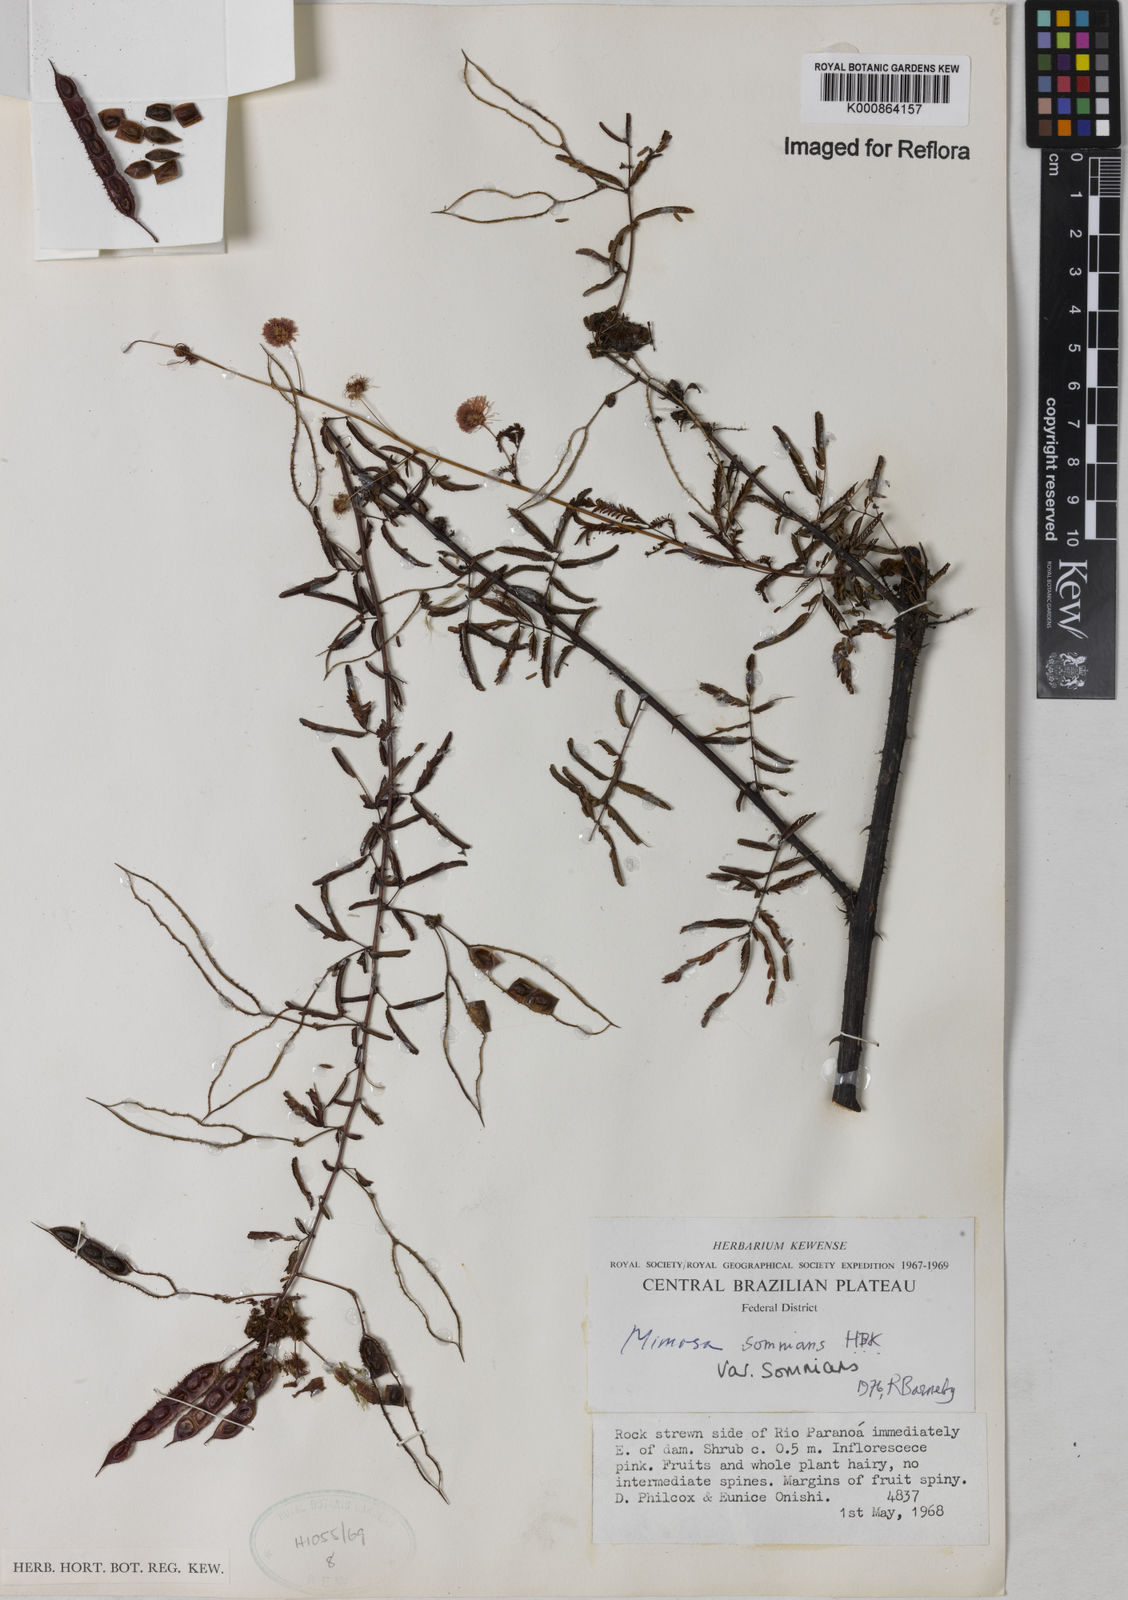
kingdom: Plantae
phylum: Tracheophyta
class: Magnoliopsida
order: Fabales
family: Fabaceae
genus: Mimosa
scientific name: Mimosa somnians
